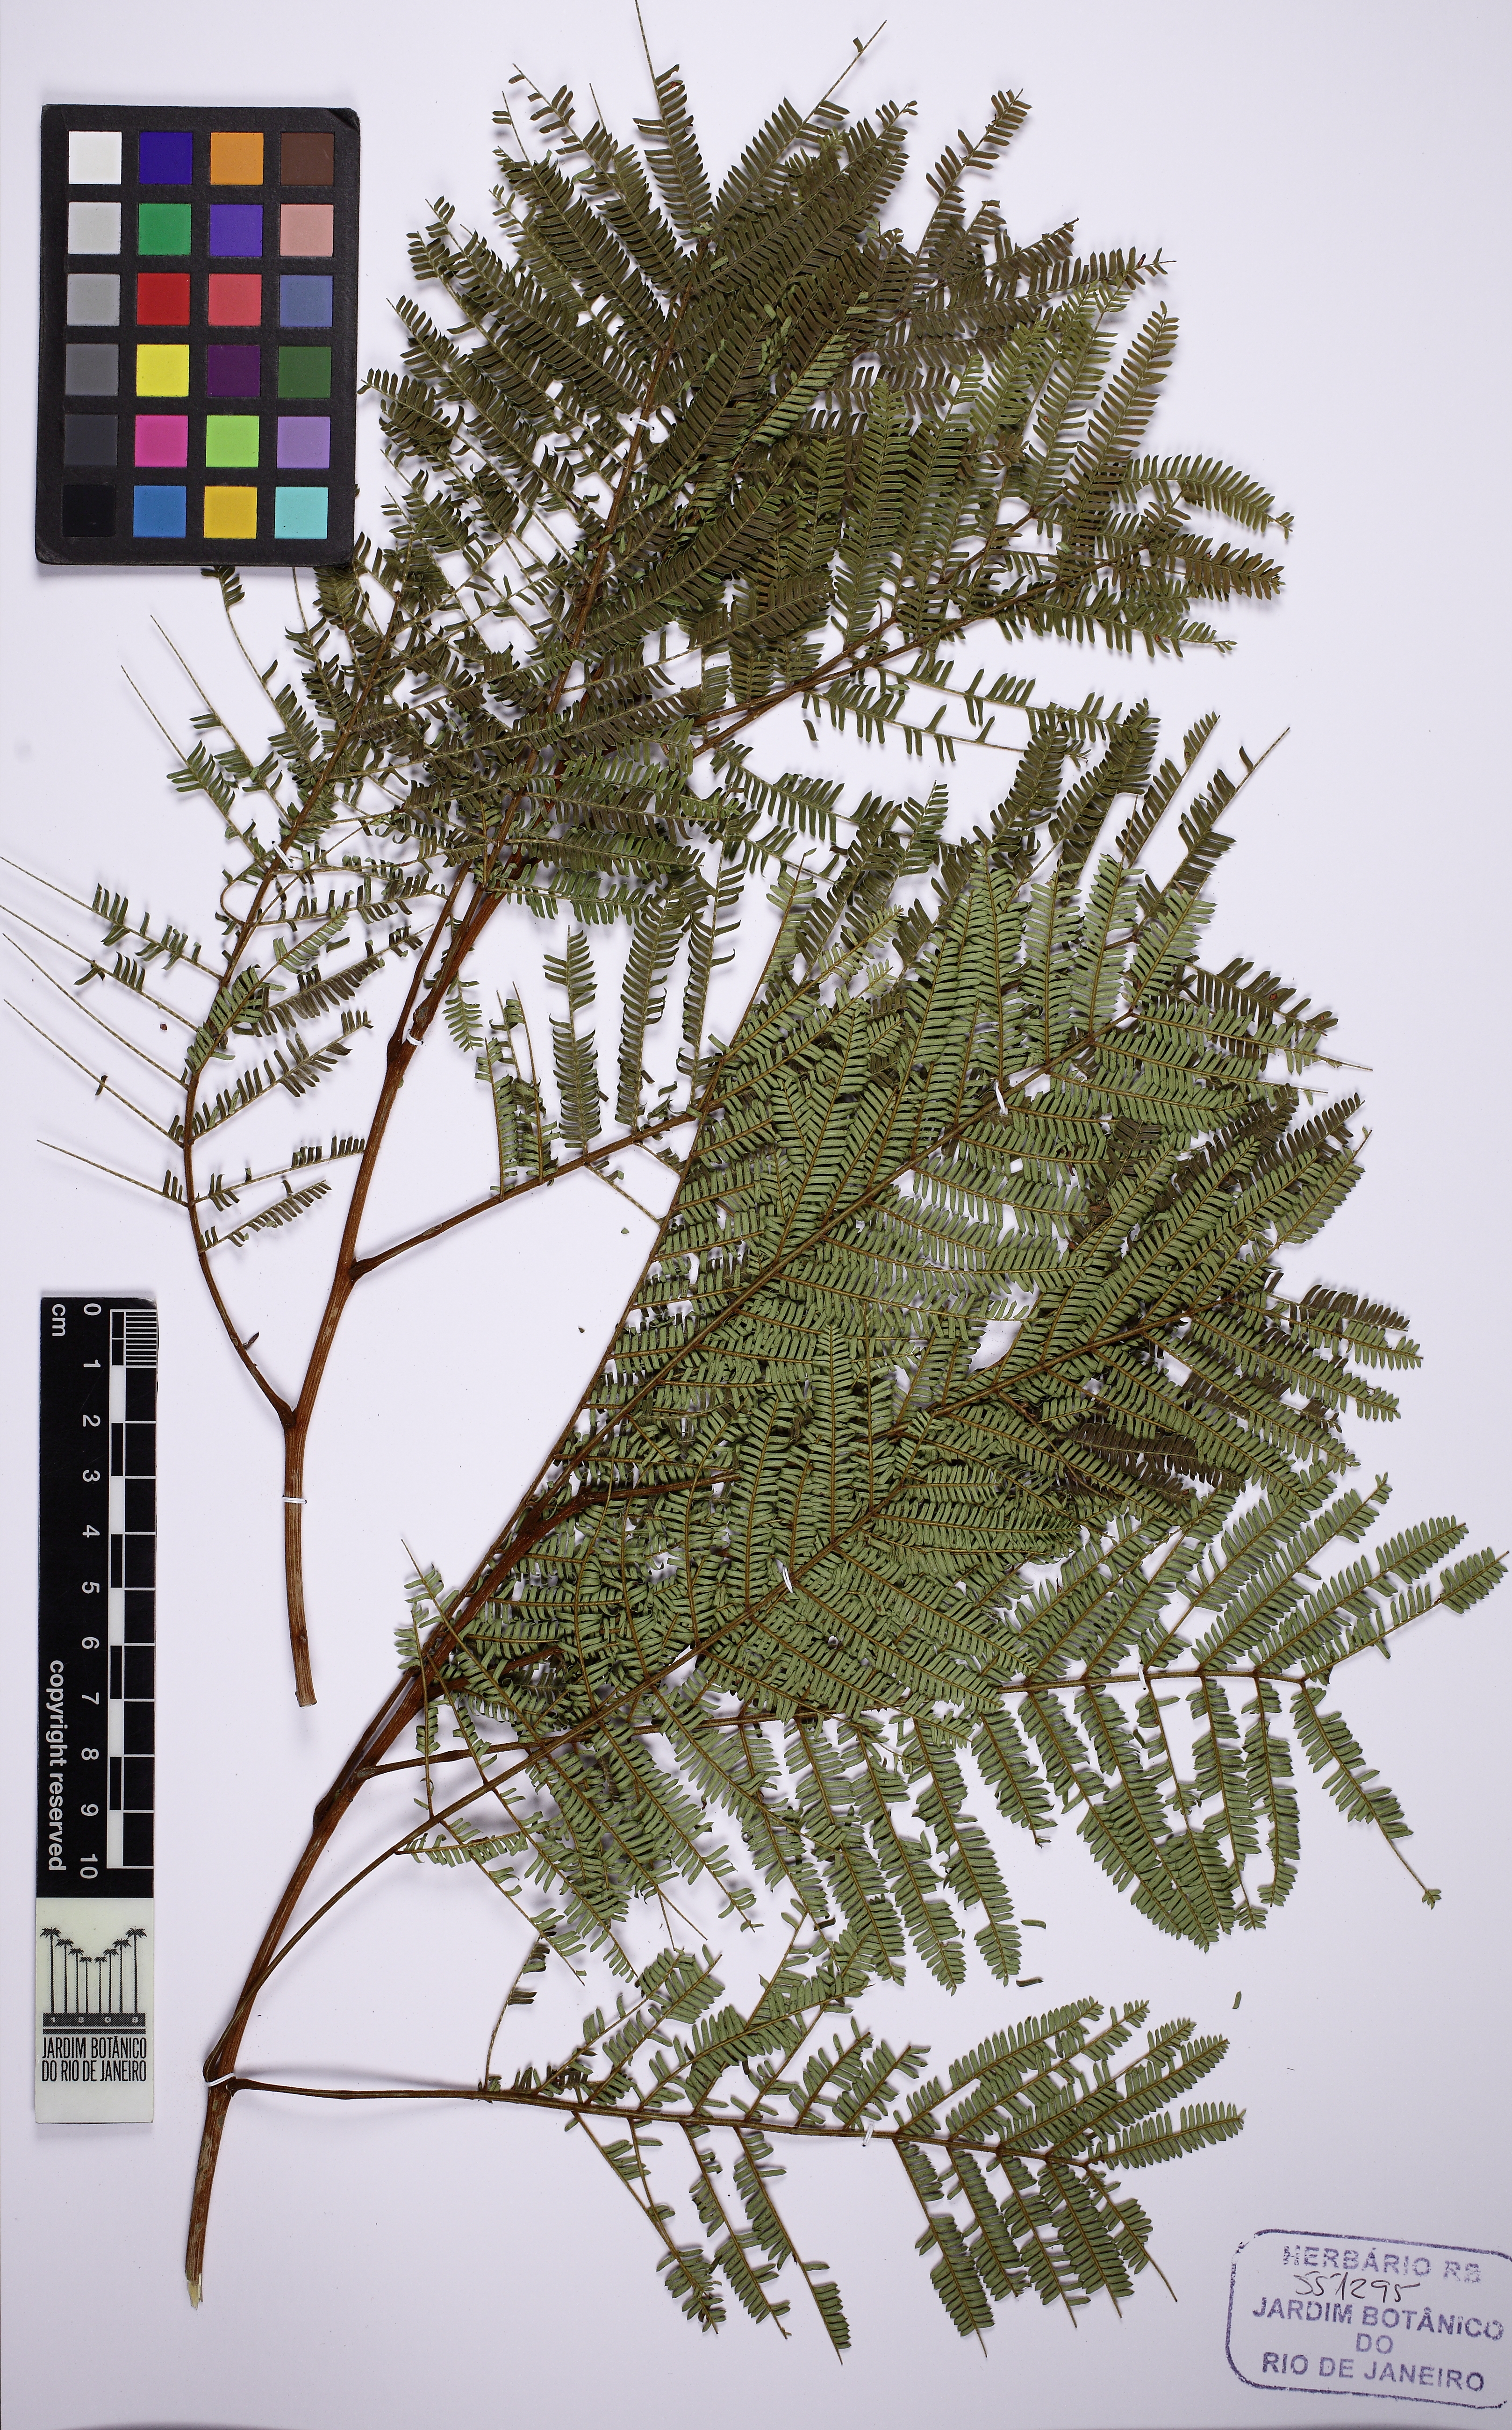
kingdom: Plantae
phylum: Tracheophyta
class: Magnoliopsida
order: Fabales
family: Fabaceae
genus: Parkia
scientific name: Parkia pectinata
